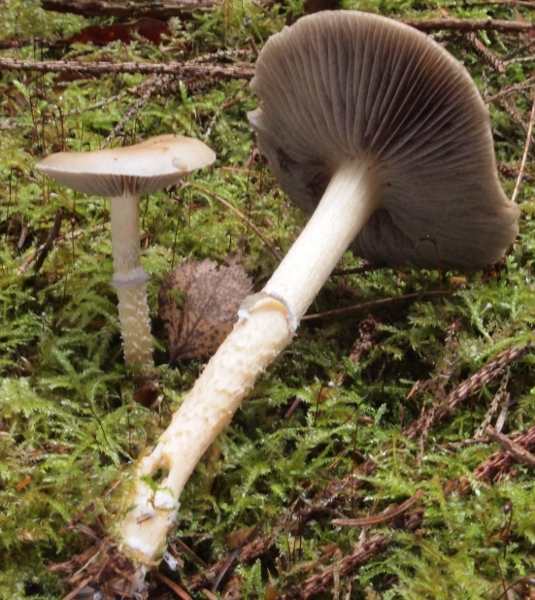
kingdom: Fungi
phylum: Basidiomycota
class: Agaricomycetes
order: Agaricales
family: Strophariaceae
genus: Stropharia
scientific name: Stropharia hornemannii
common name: nordisk bredblad
